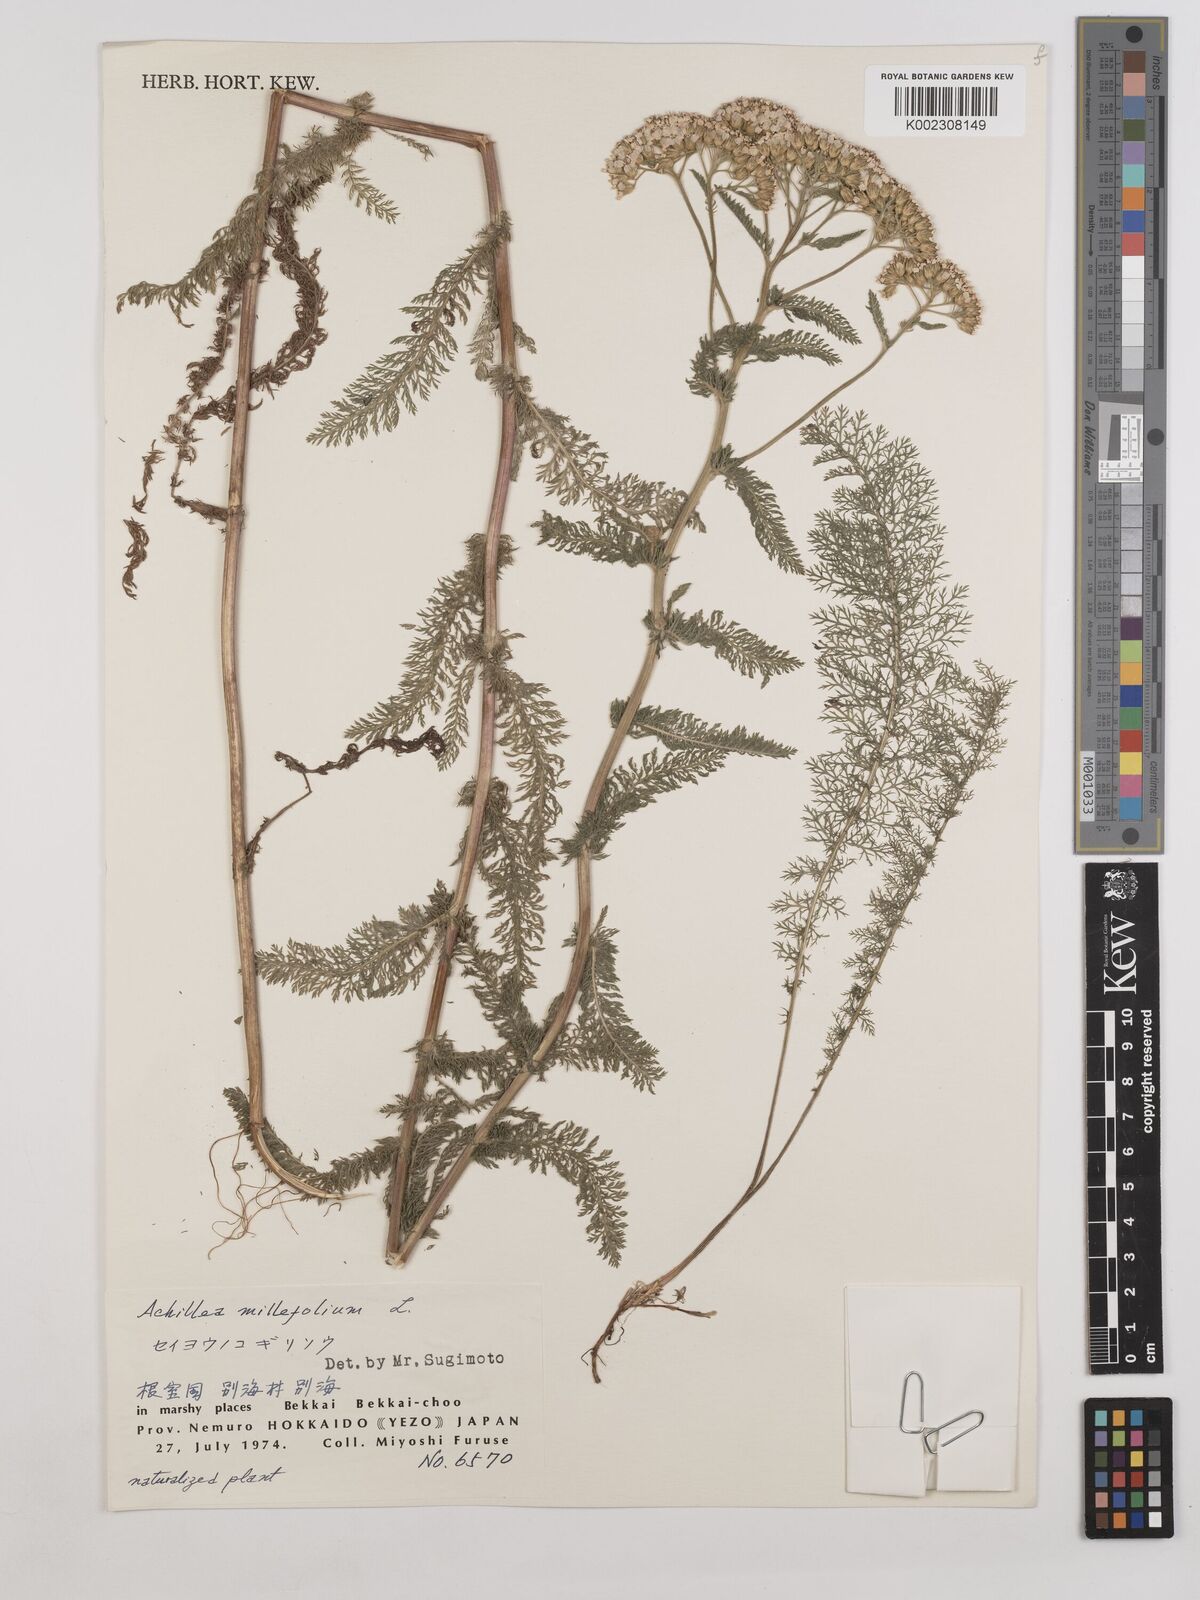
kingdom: Plantae
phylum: Tracheophyta
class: Magnoliopsida
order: Asterales
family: Asteraceae
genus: Achillea
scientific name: Achillea millefolium
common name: Yarrow
